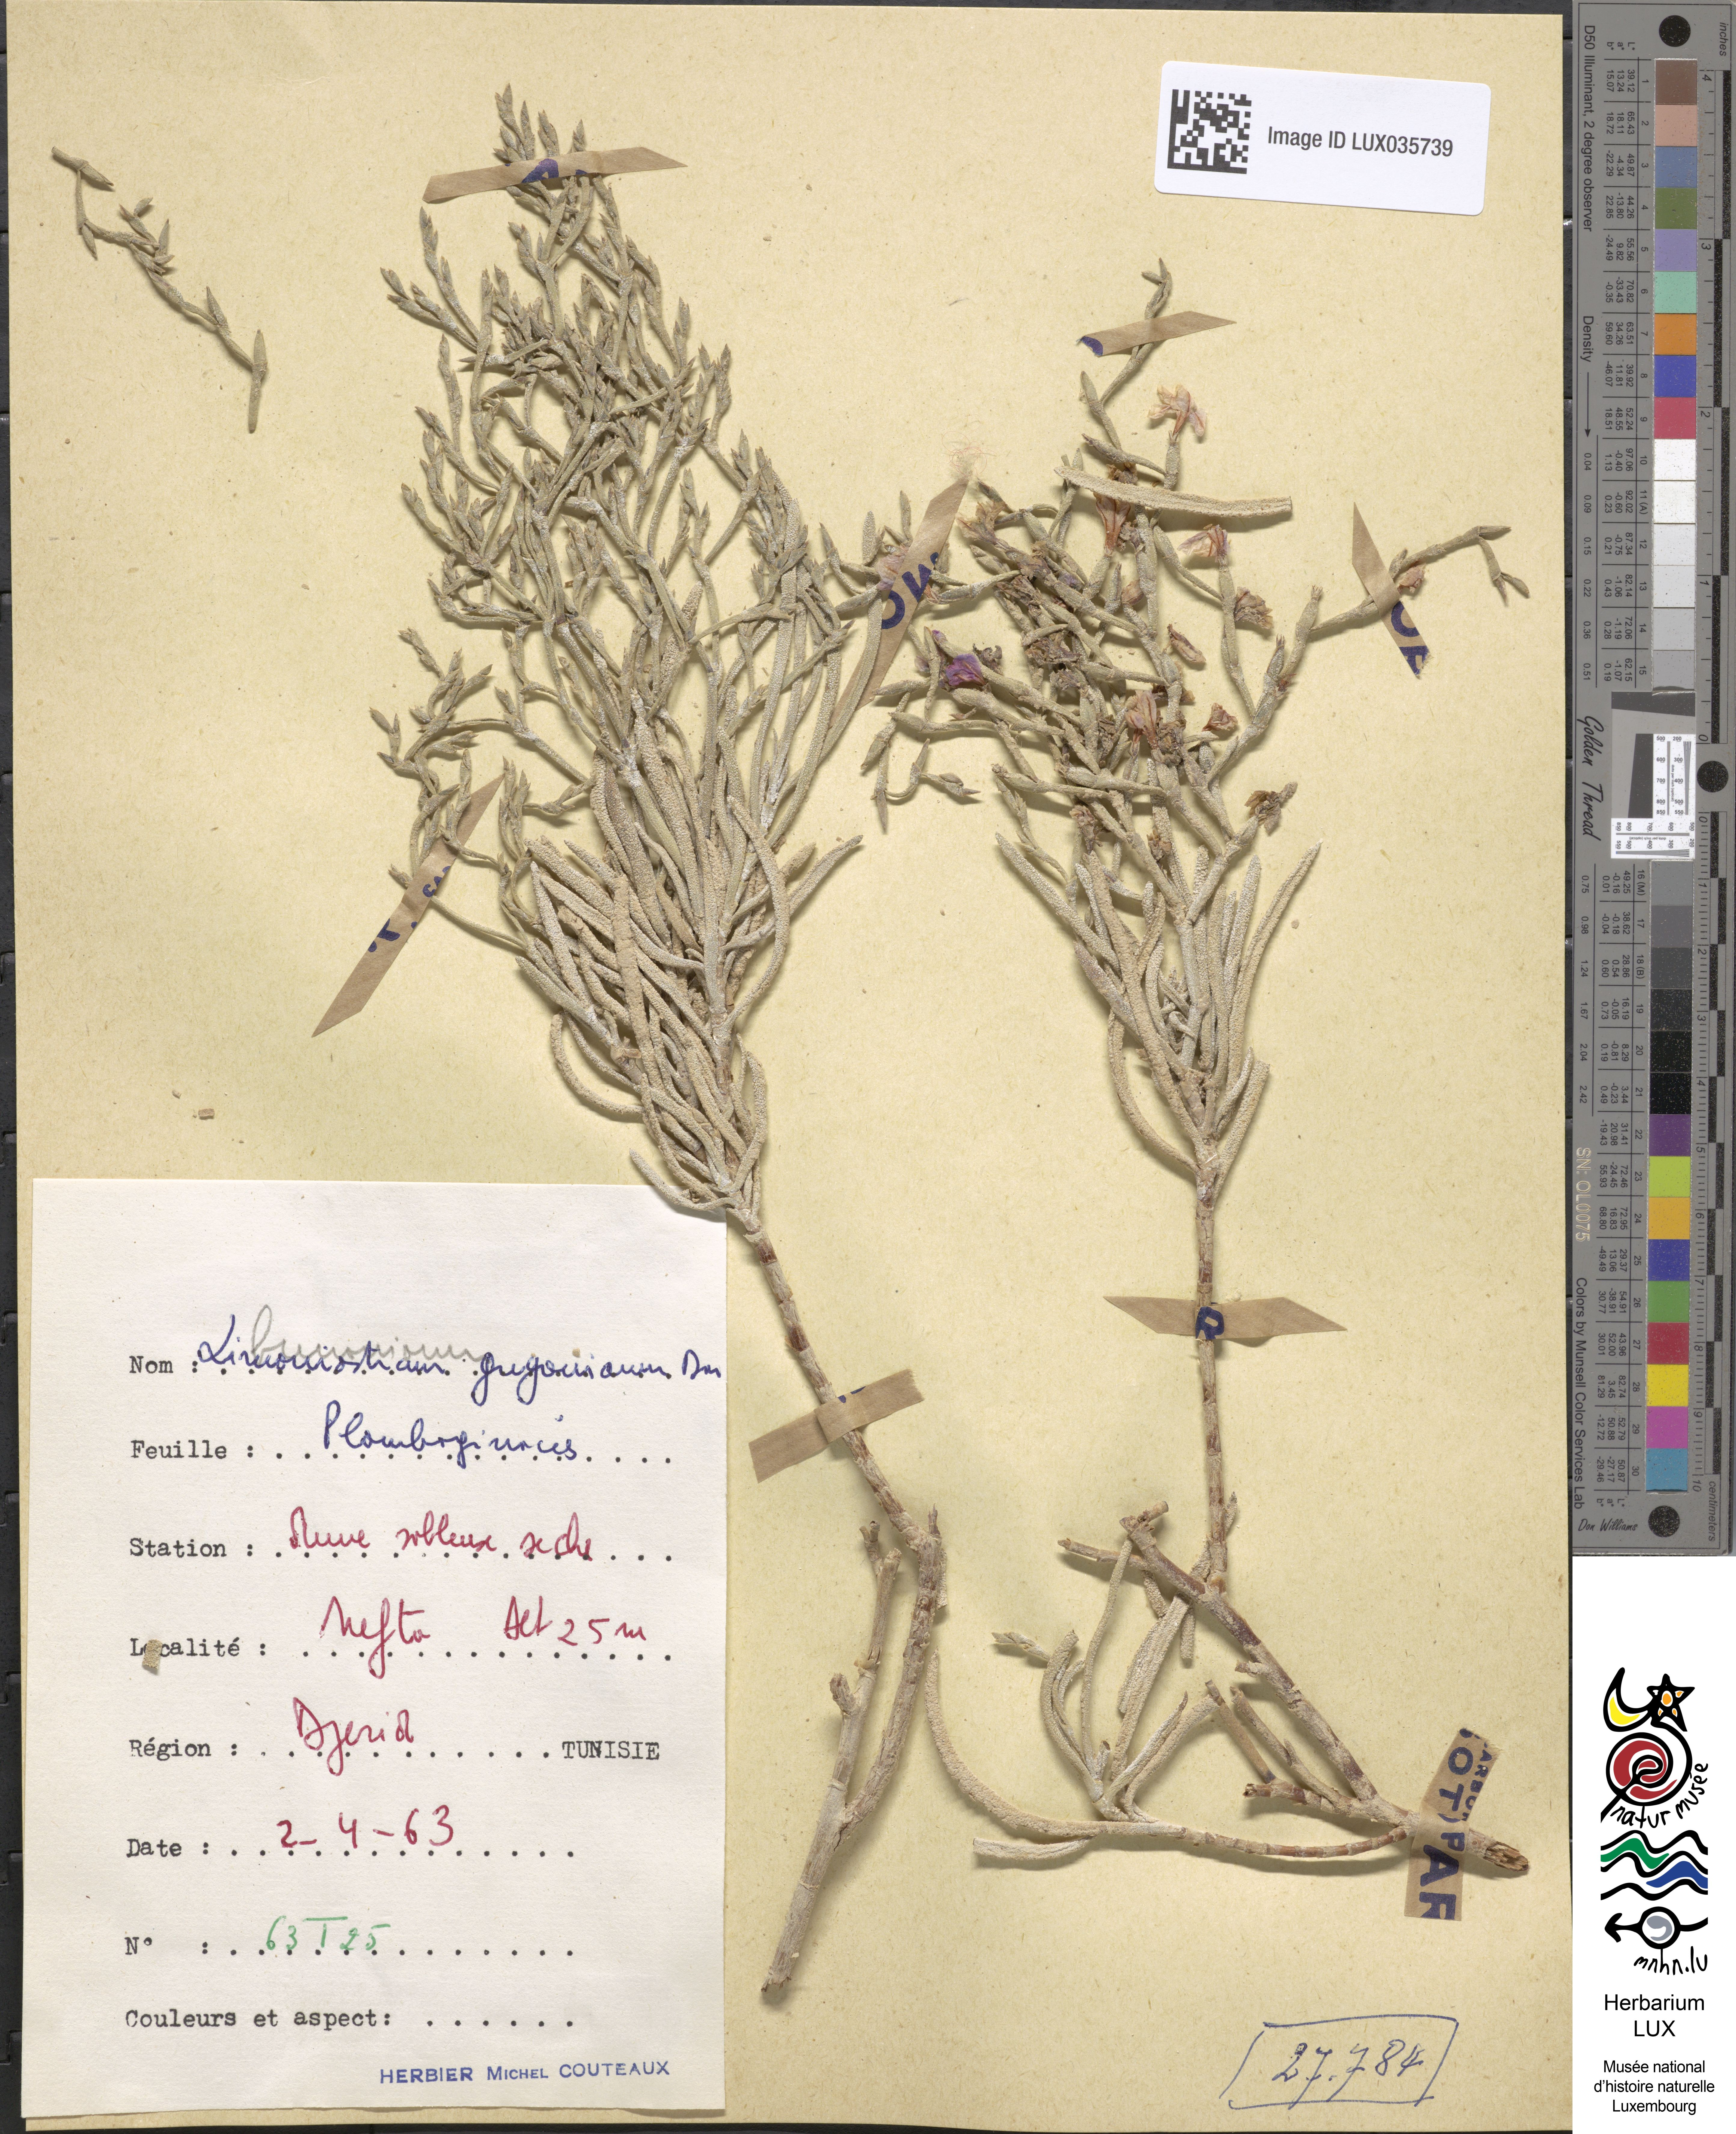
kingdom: Plantae
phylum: Tracheophyta
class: Magnoliopsida
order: Caryophyllales
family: Plumbaginaceae
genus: Limoniastrum
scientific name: Limoniastrum
